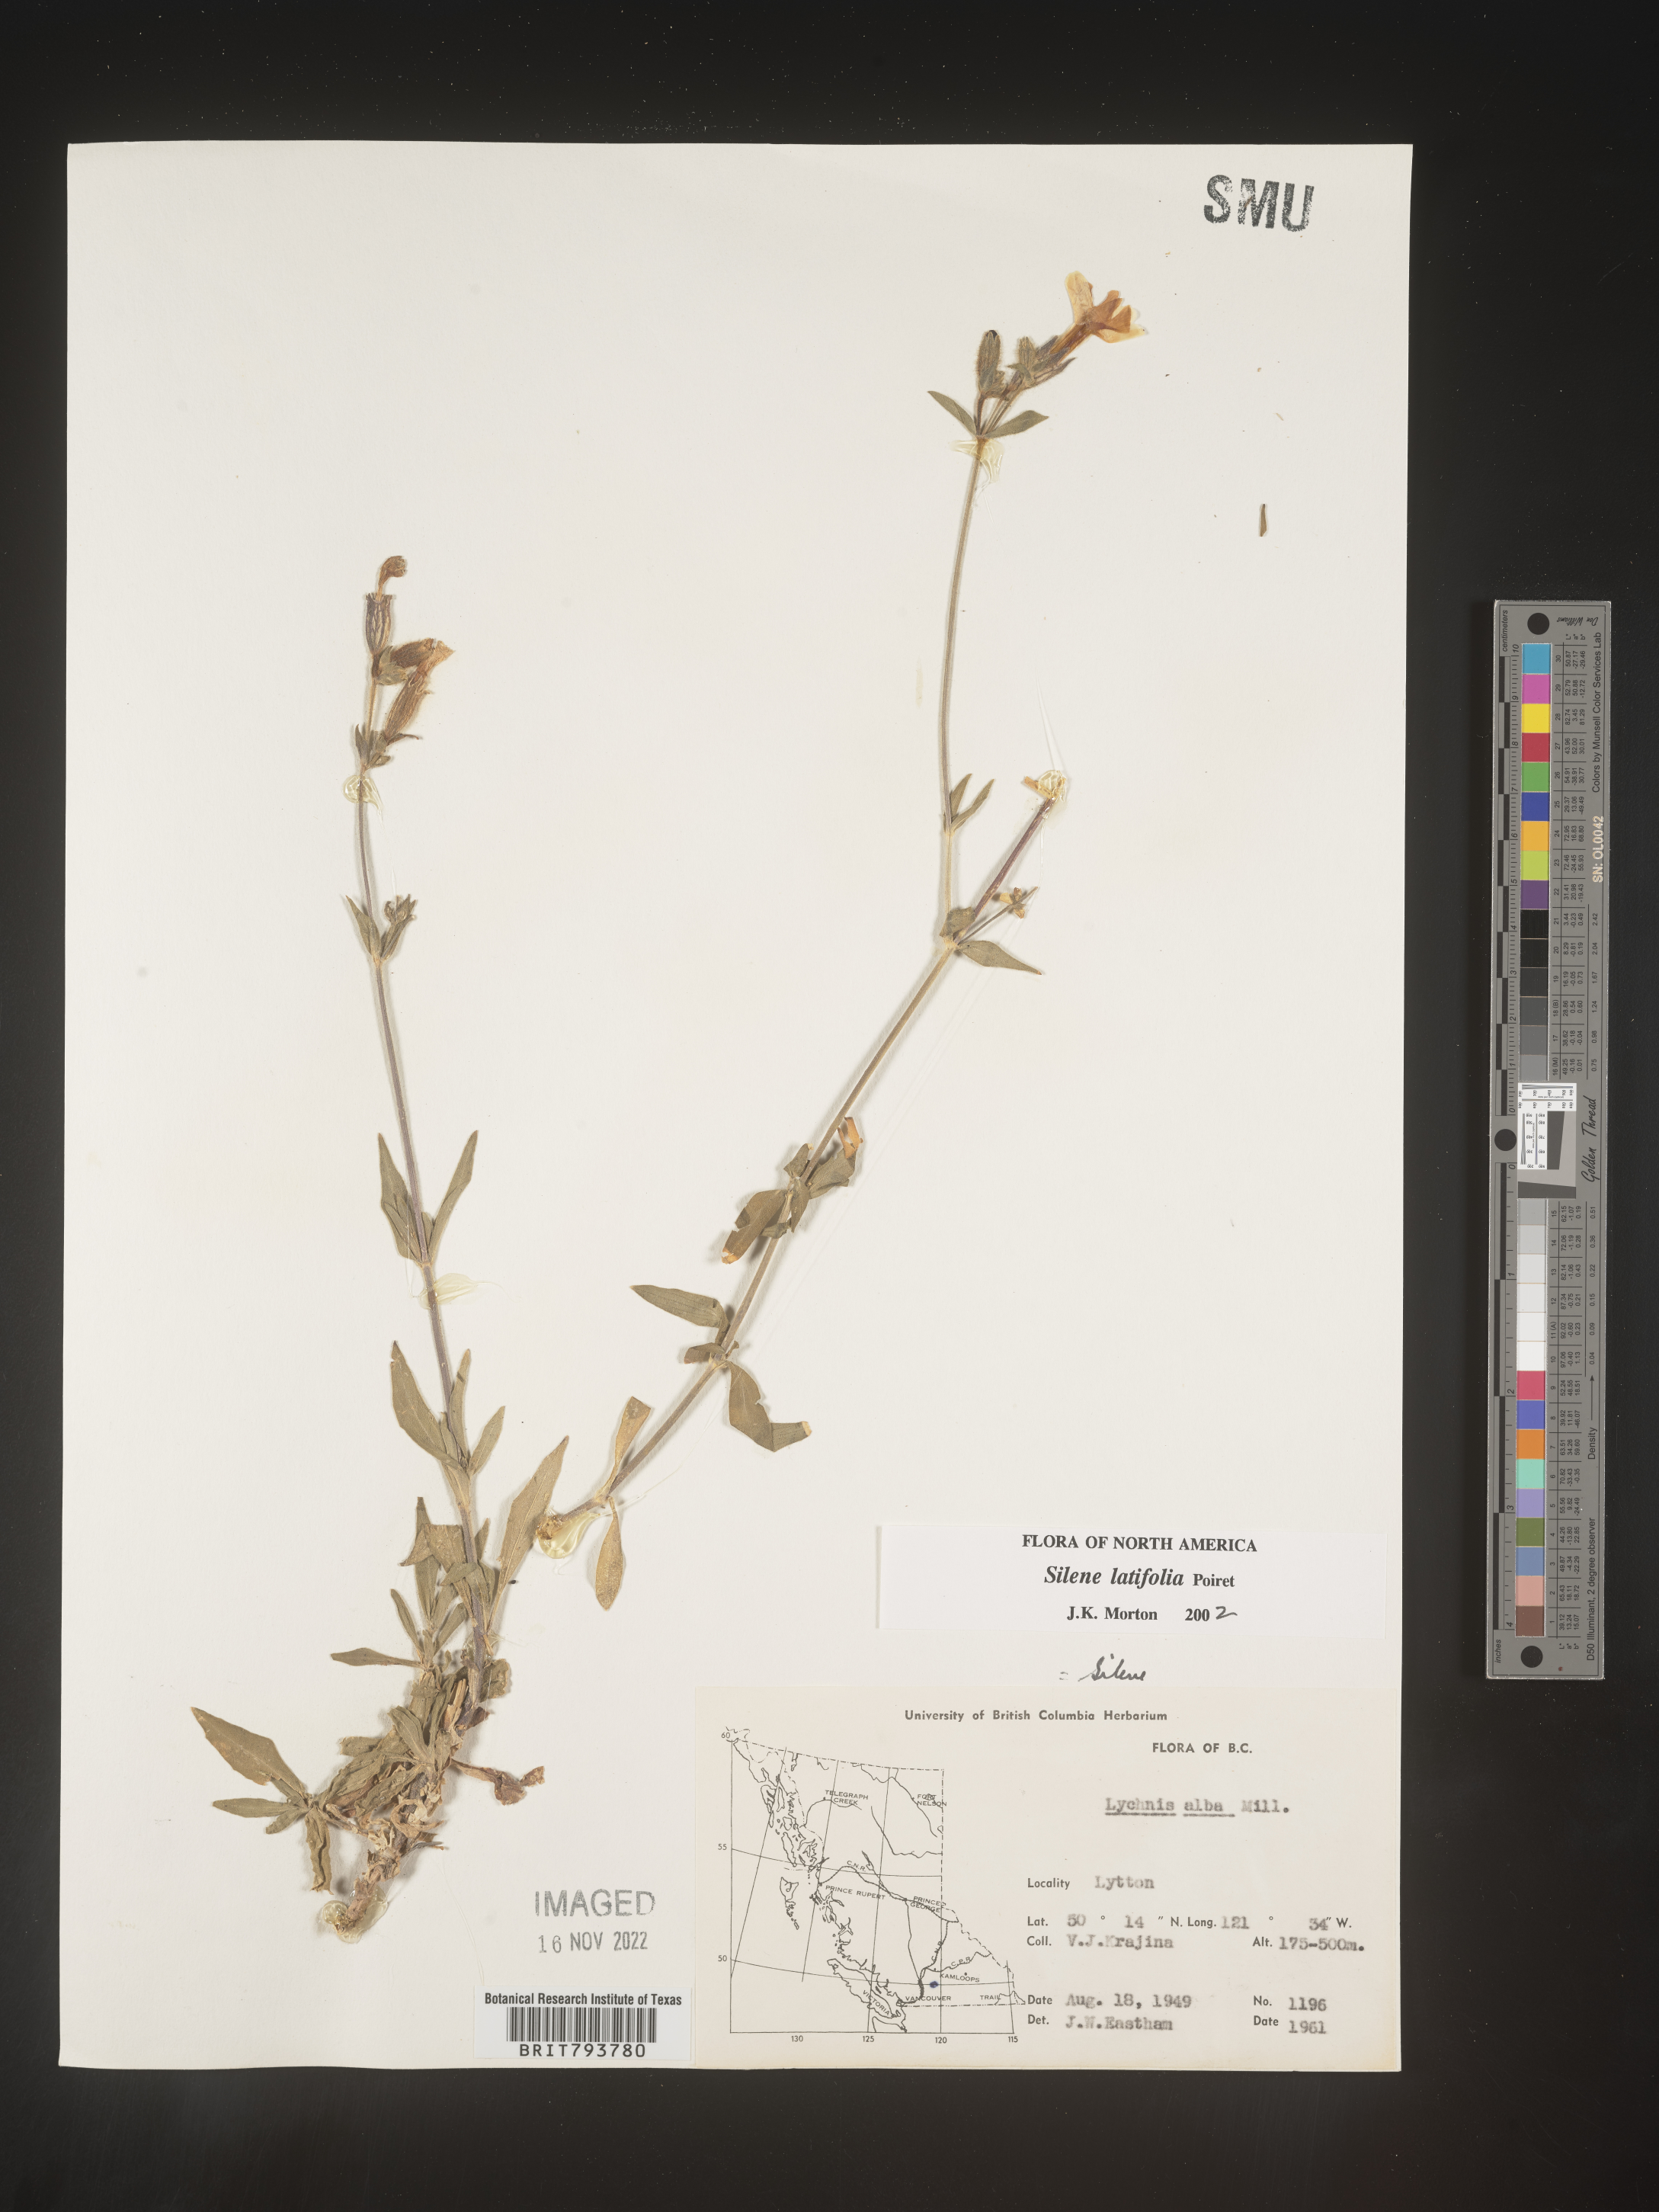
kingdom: Plantae
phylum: Tracheophyta
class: Magnoliopsida
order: Caryophyllales
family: Caryophyllaceae
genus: Silene
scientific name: Silene latifolia
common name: White campion
